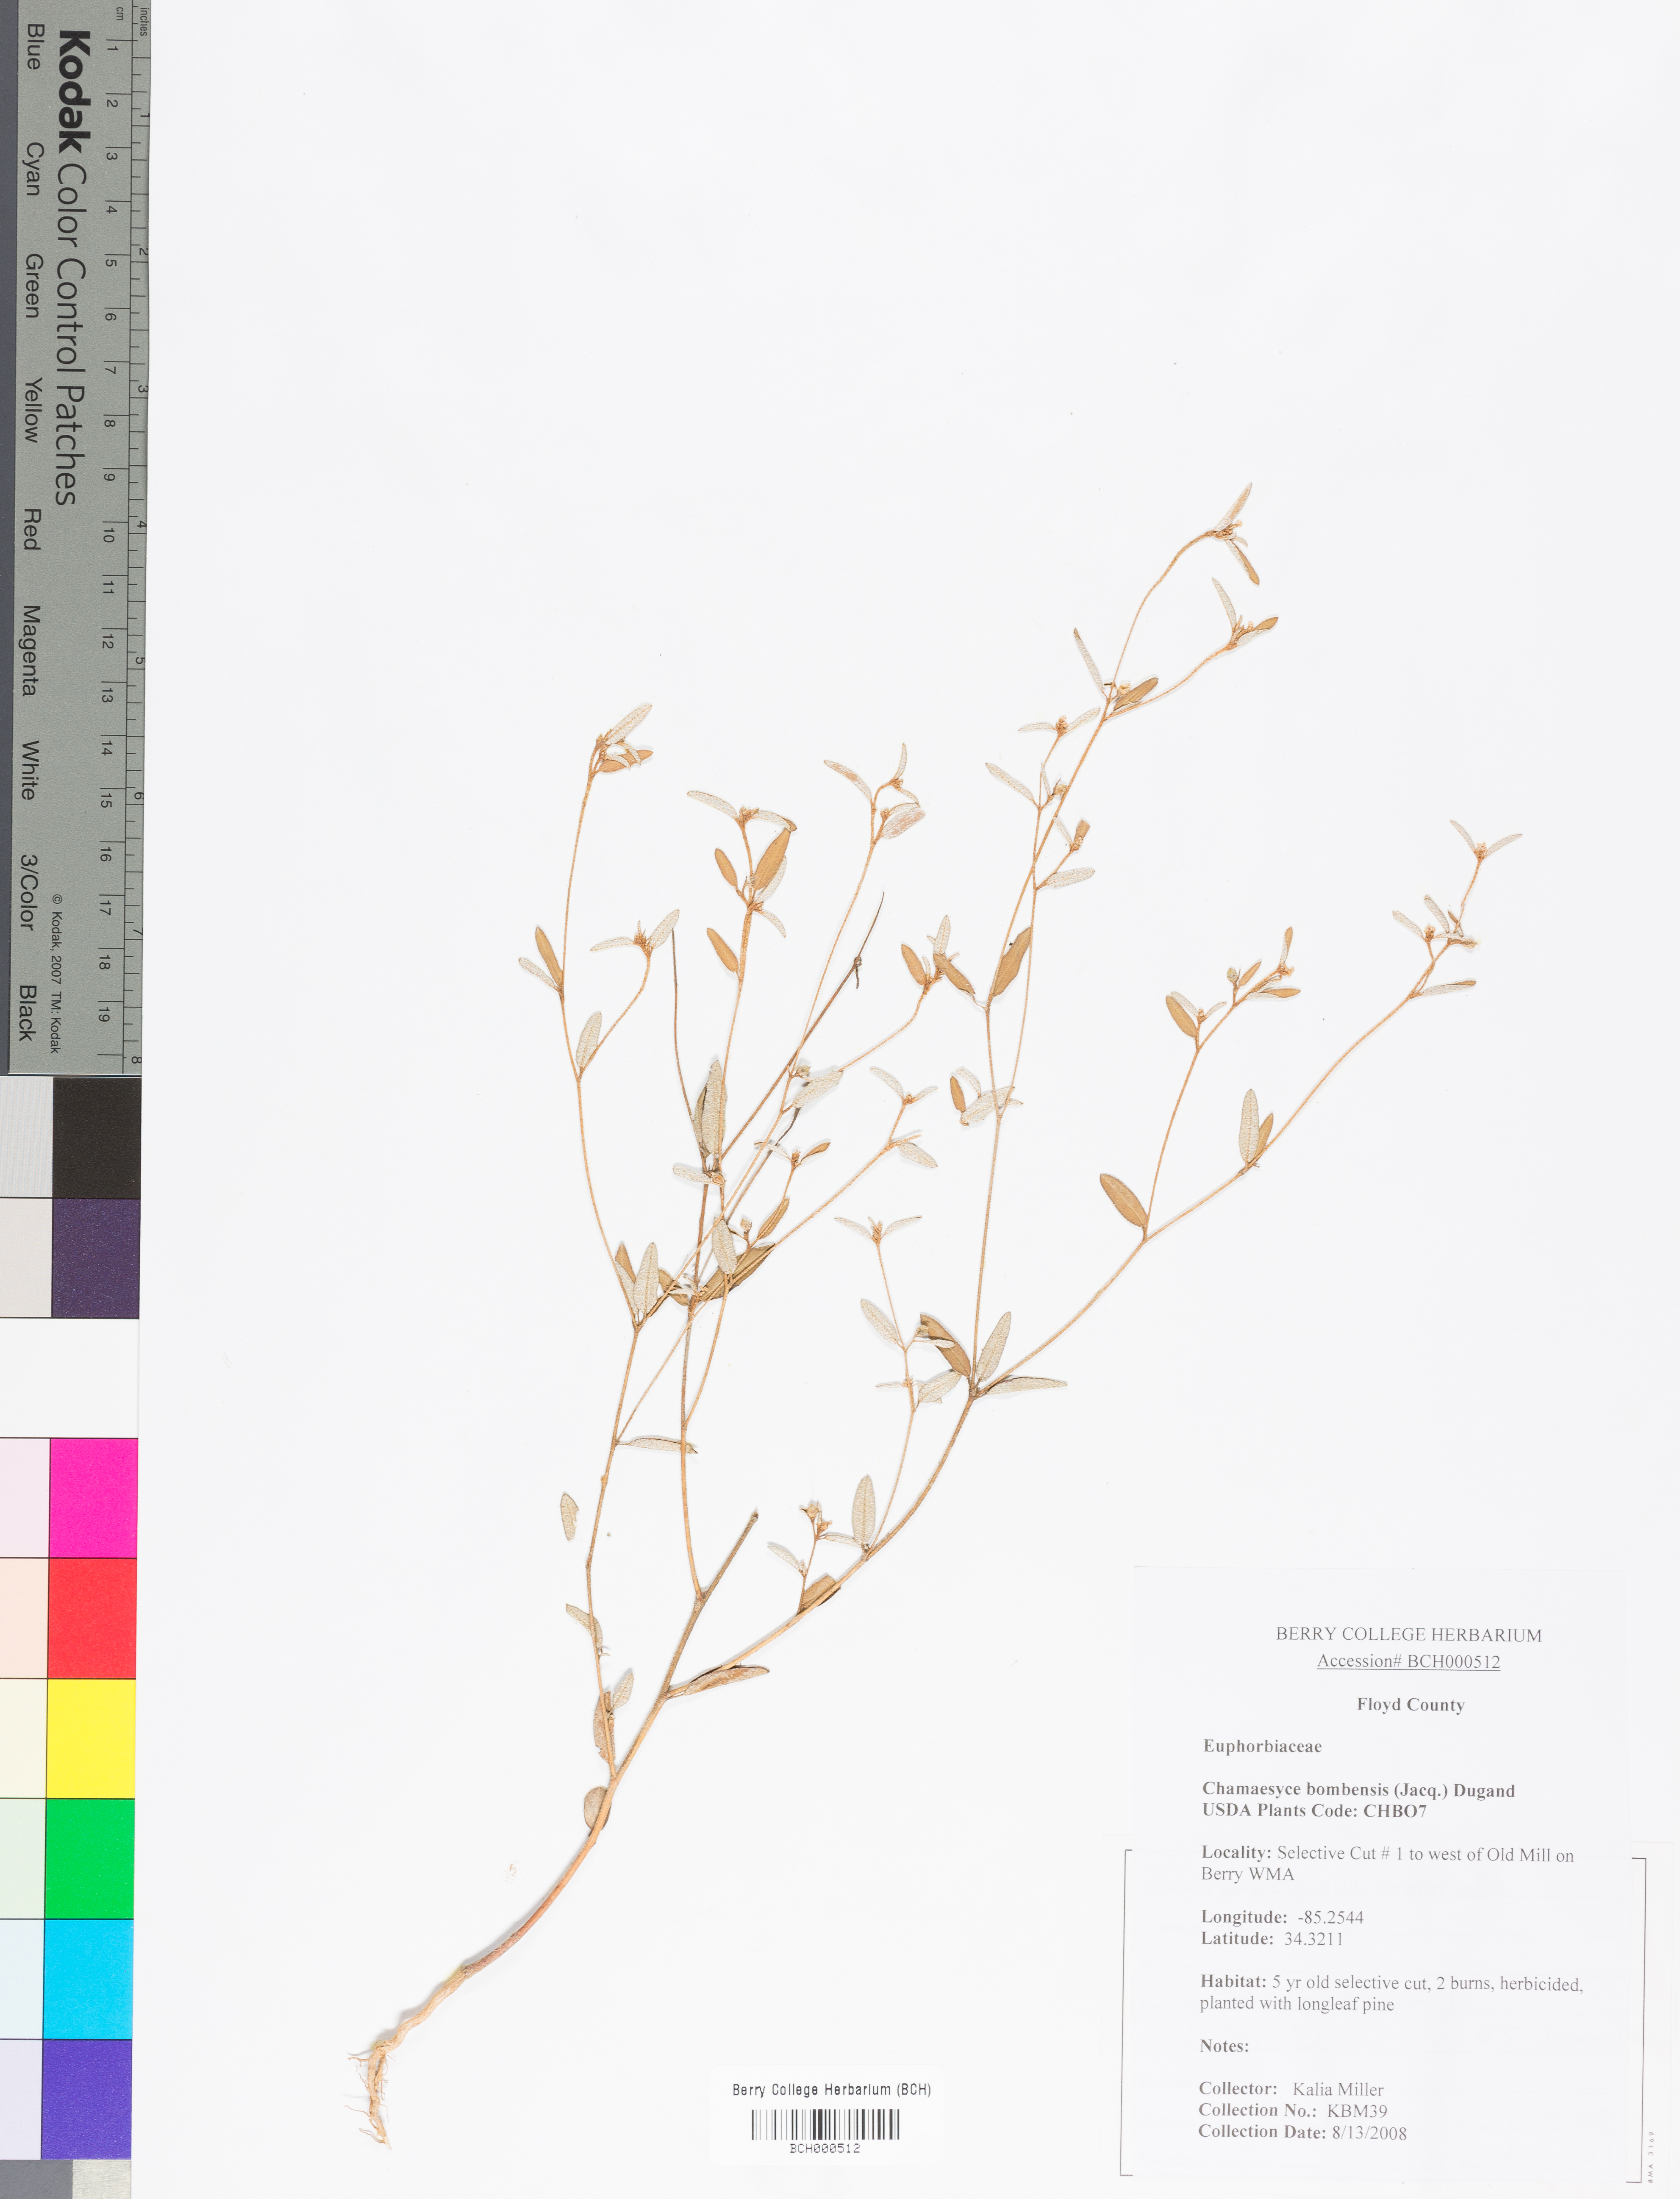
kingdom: Plantae
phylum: Tracheophyta
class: Magnoliopsida
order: Malpighiales
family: Euphorbiaceae
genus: Euphorbia
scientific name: Euphorbia bombensis
